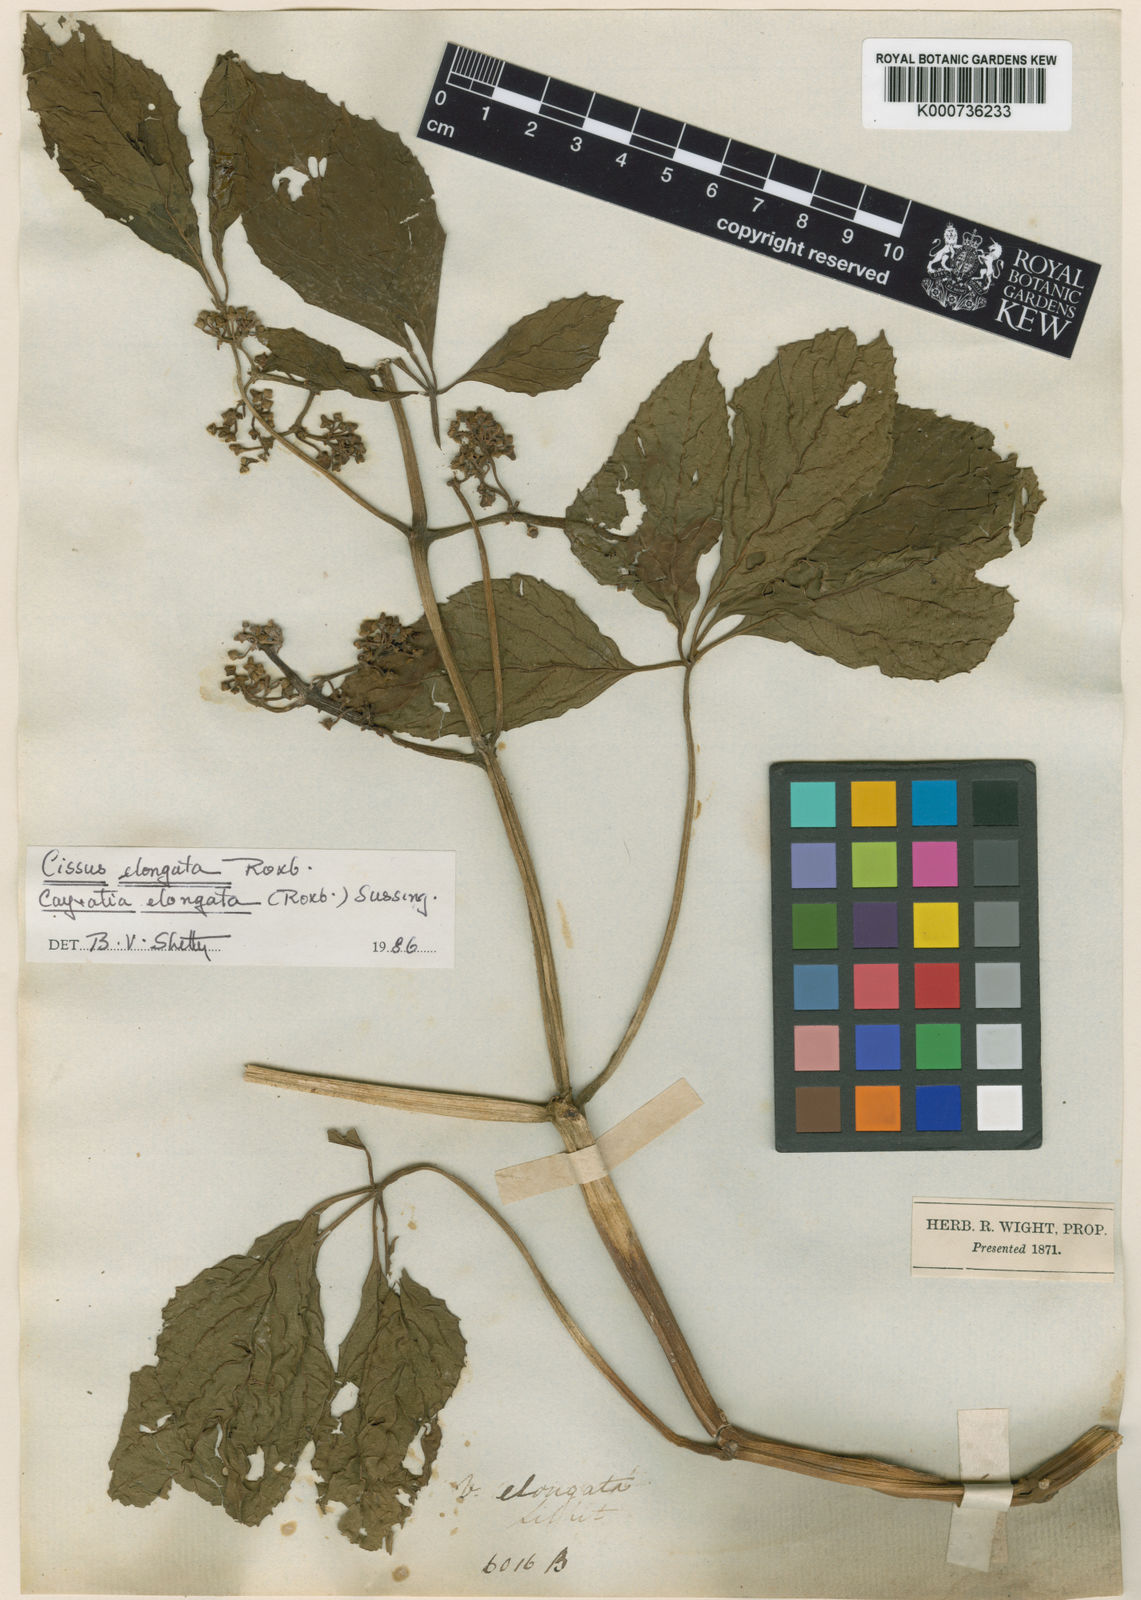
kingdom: Plantae
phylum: Tracheophyta
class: Magnoliopsida
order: Vitales
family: Vitaceae
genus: Cissus
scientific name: Cissus elongata
